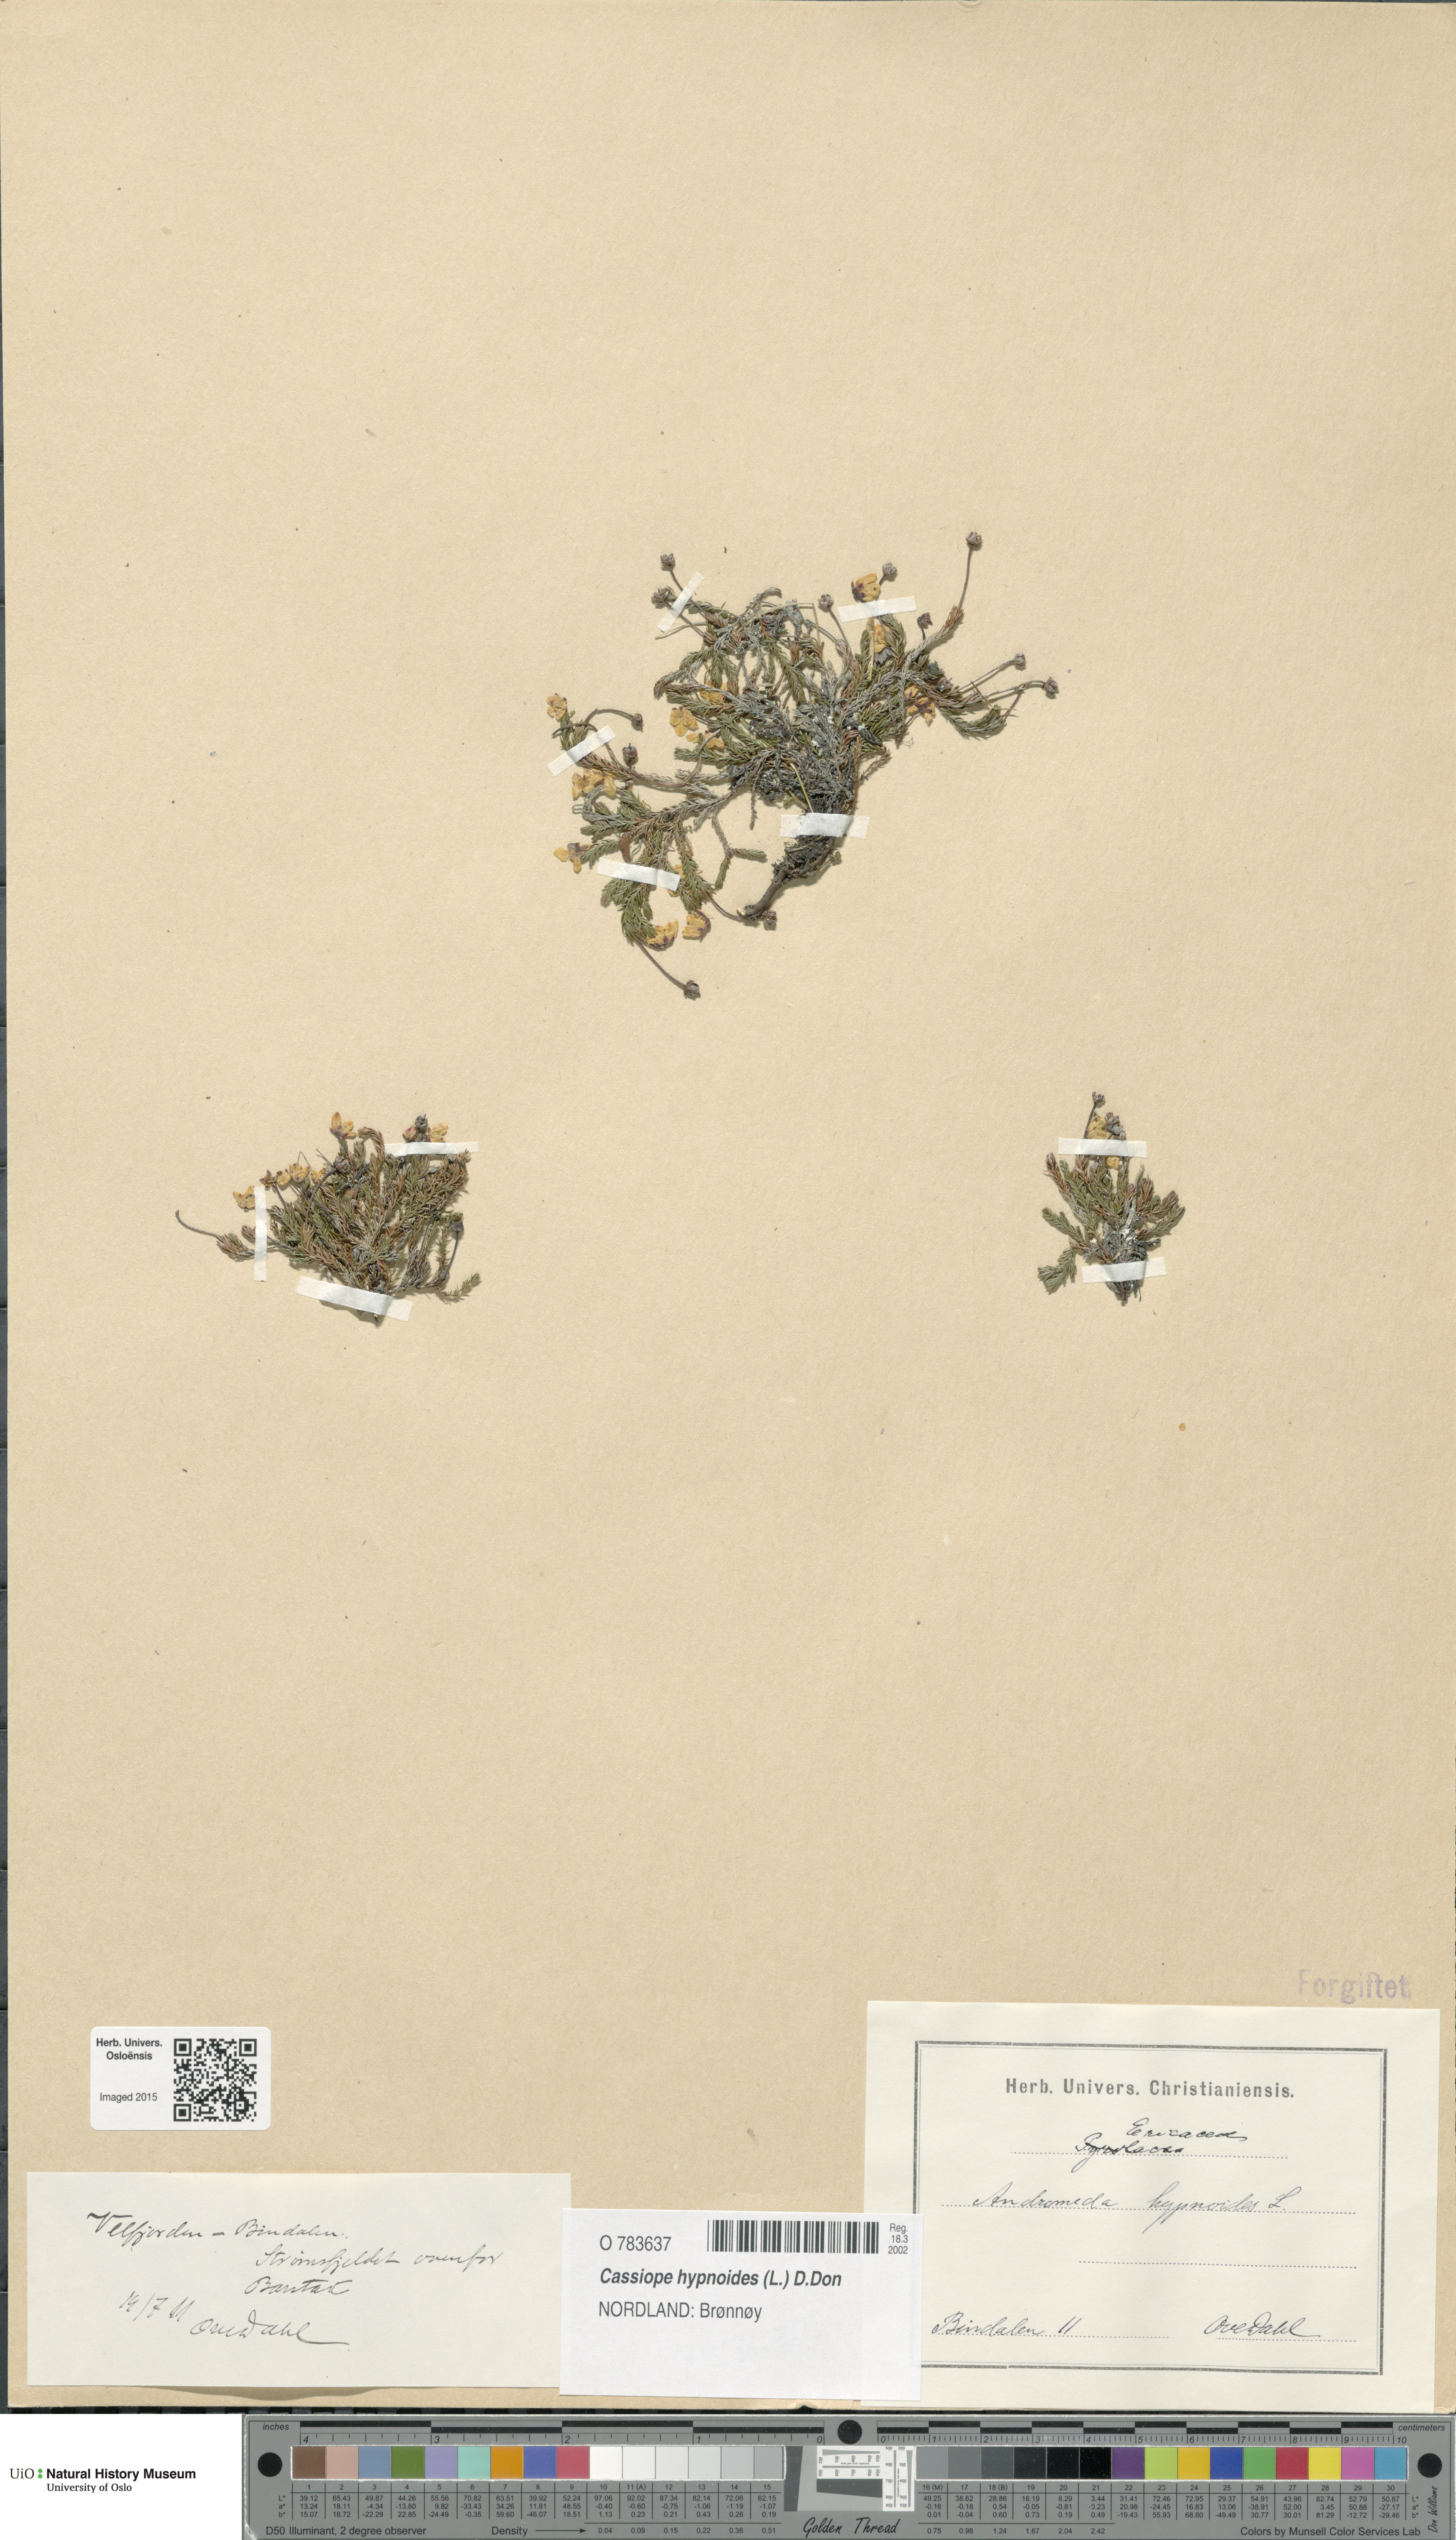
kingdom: Plantae
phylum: Tracheophyta
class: Magnoliopsida
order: Ericales
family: Ericaceae
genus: Harrimanella
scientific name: Harrimanella hypnoides
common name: Moss bell heather
